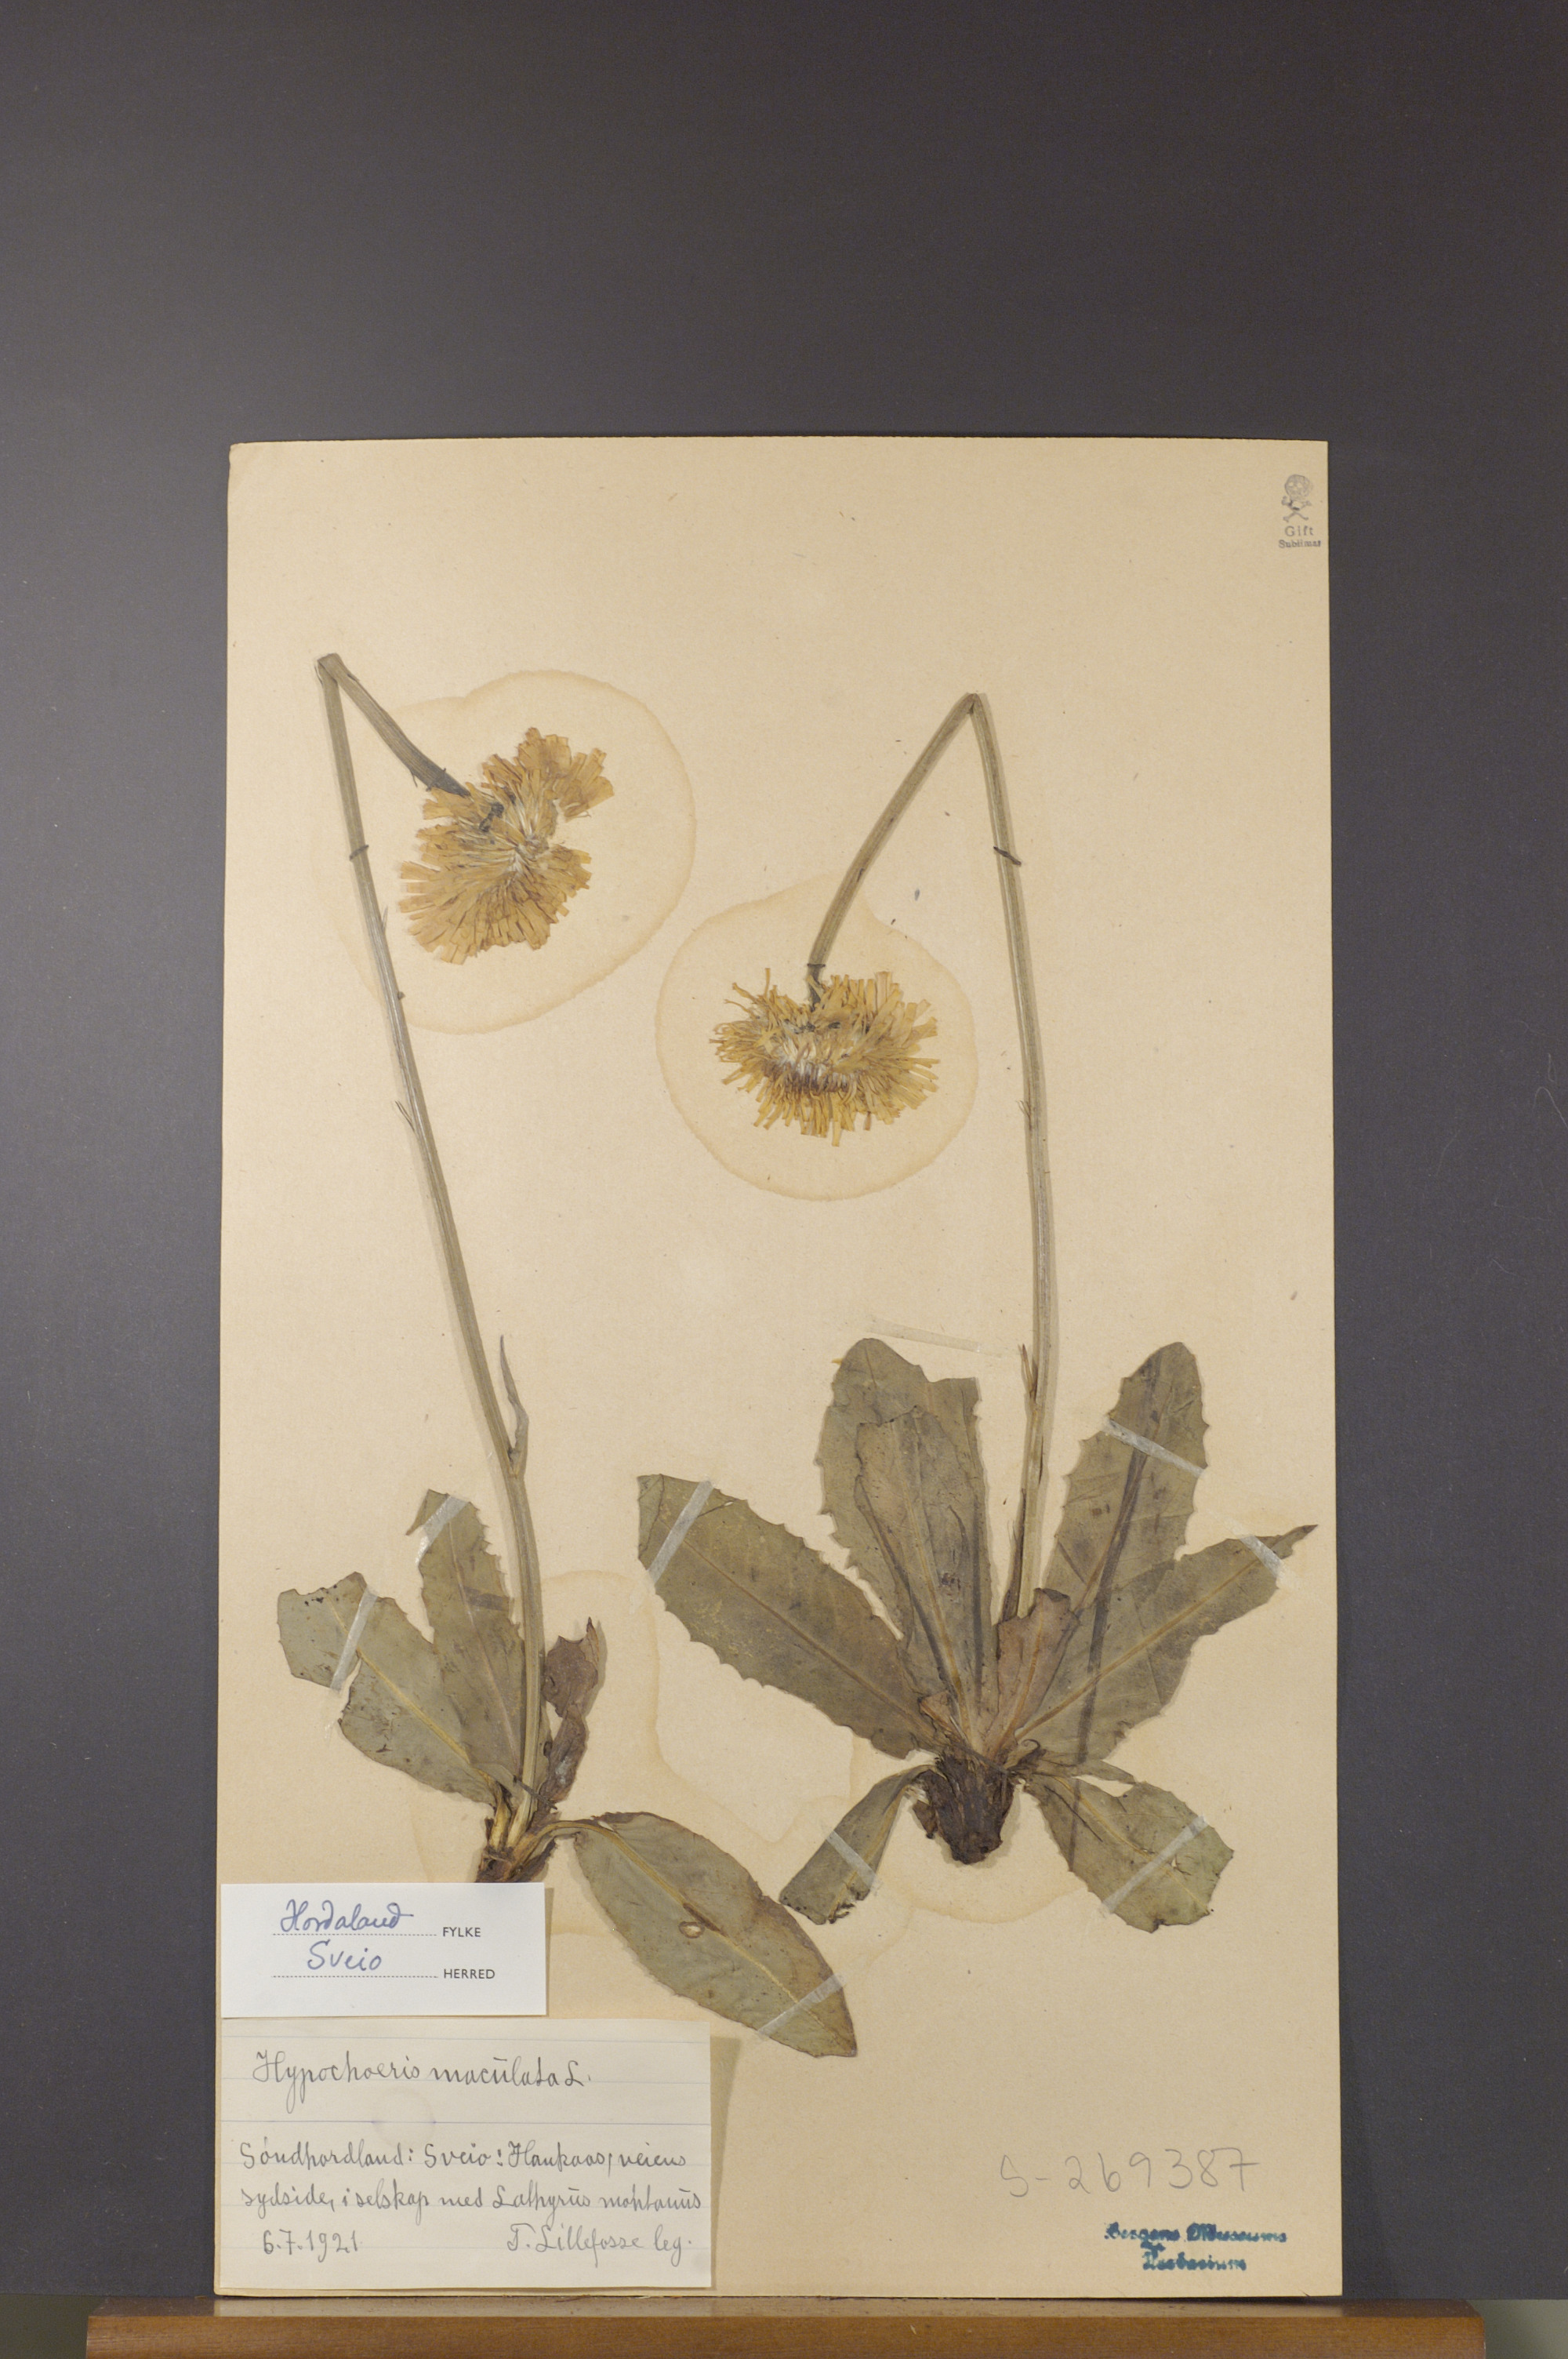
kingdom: Plantae
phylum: Tracheophyta
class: Magnoliopsida
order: Asterales
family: Asteraceae
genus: Trommsdorffia
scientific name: Trommsdorffia maculata
